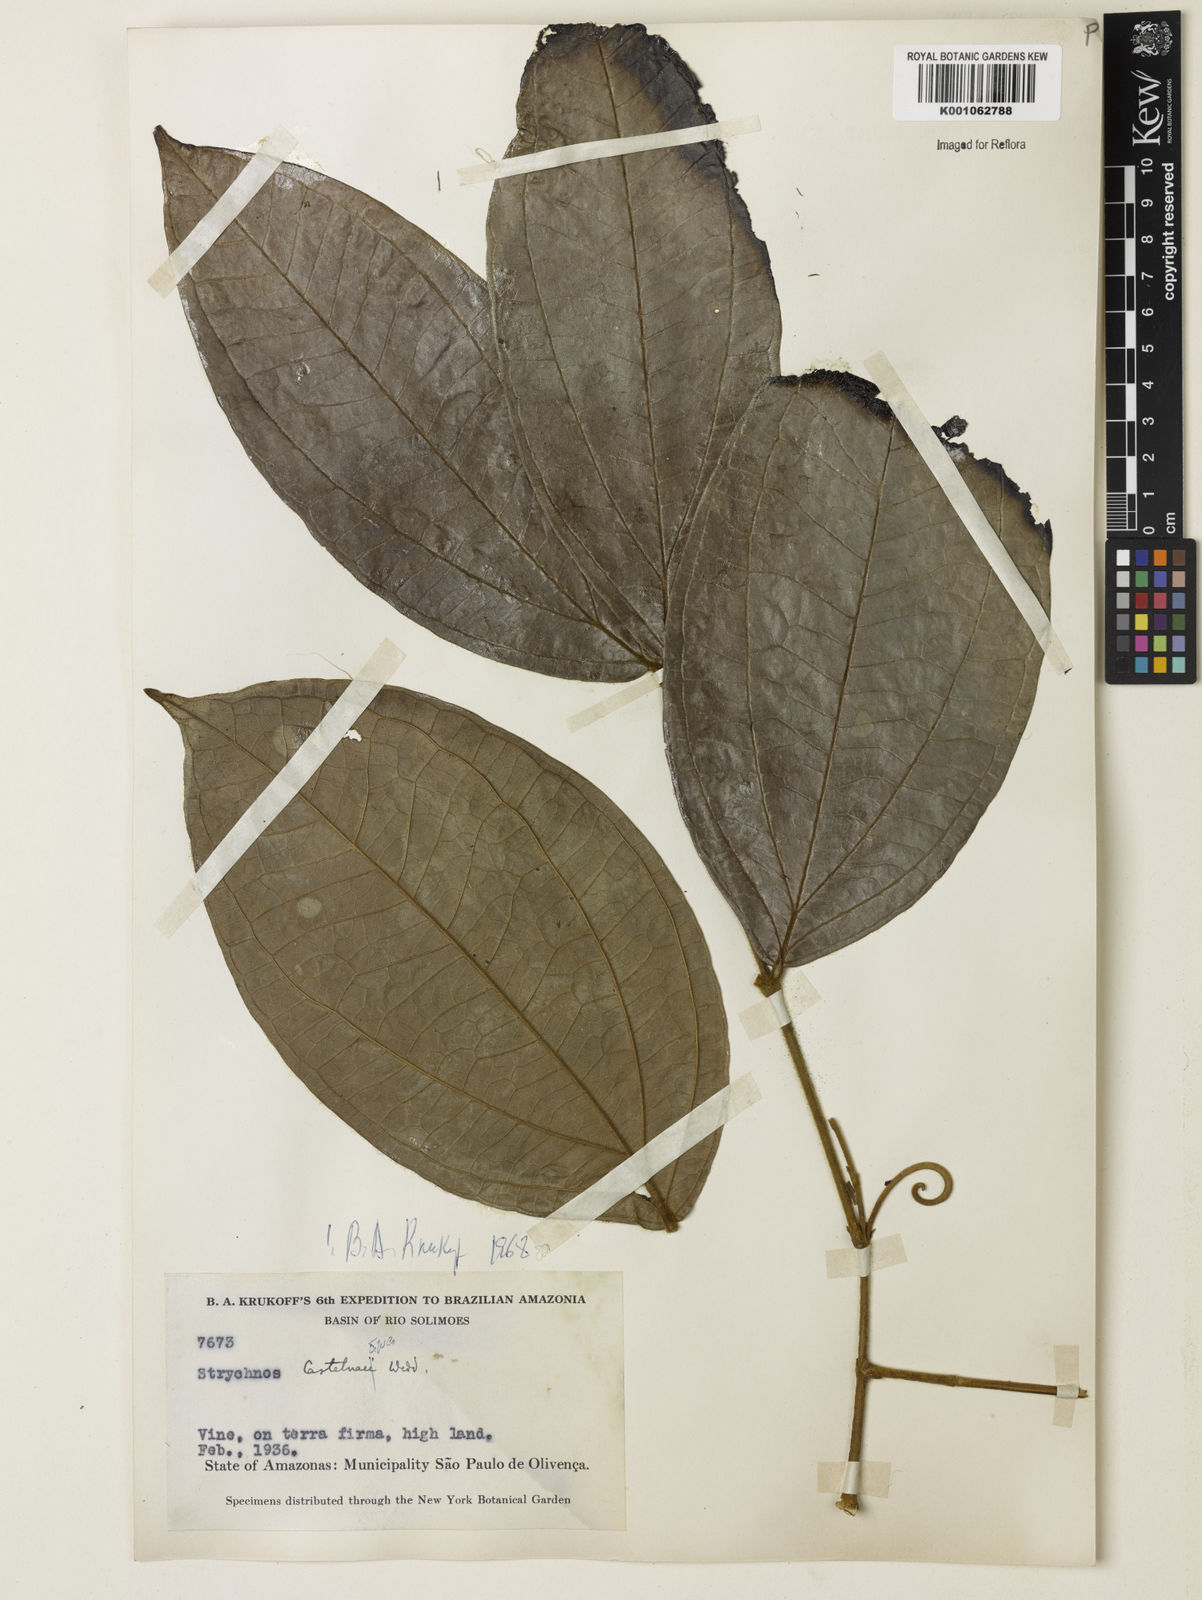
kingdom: Plantae
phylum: Tracheophyta
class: Magnoliopsida
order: Gentianales
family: Loganiaceae
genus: Strychnos
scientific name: Strychnos
